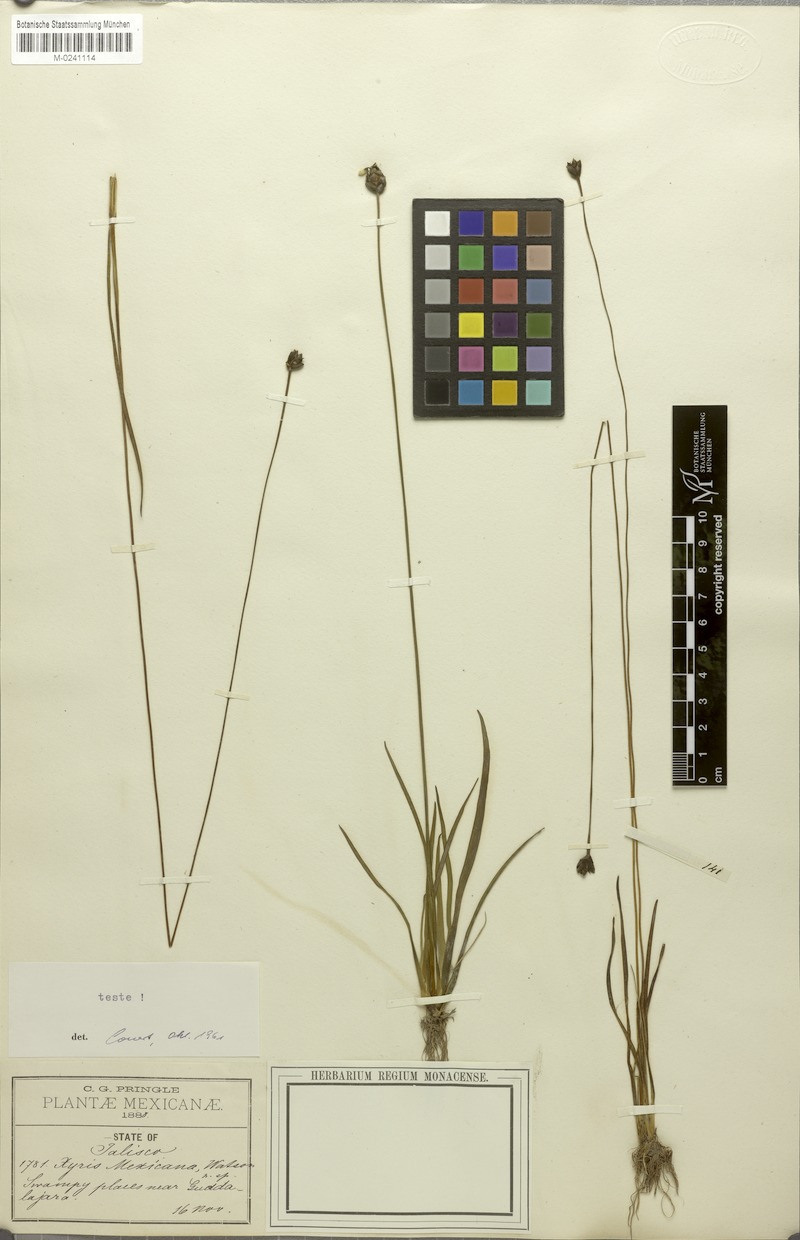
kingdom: Plantae
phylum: Tracheophyta
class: Liliopsida
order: Poales
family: Xyridaceae
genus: Xyris
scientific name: Xyris mexicana
